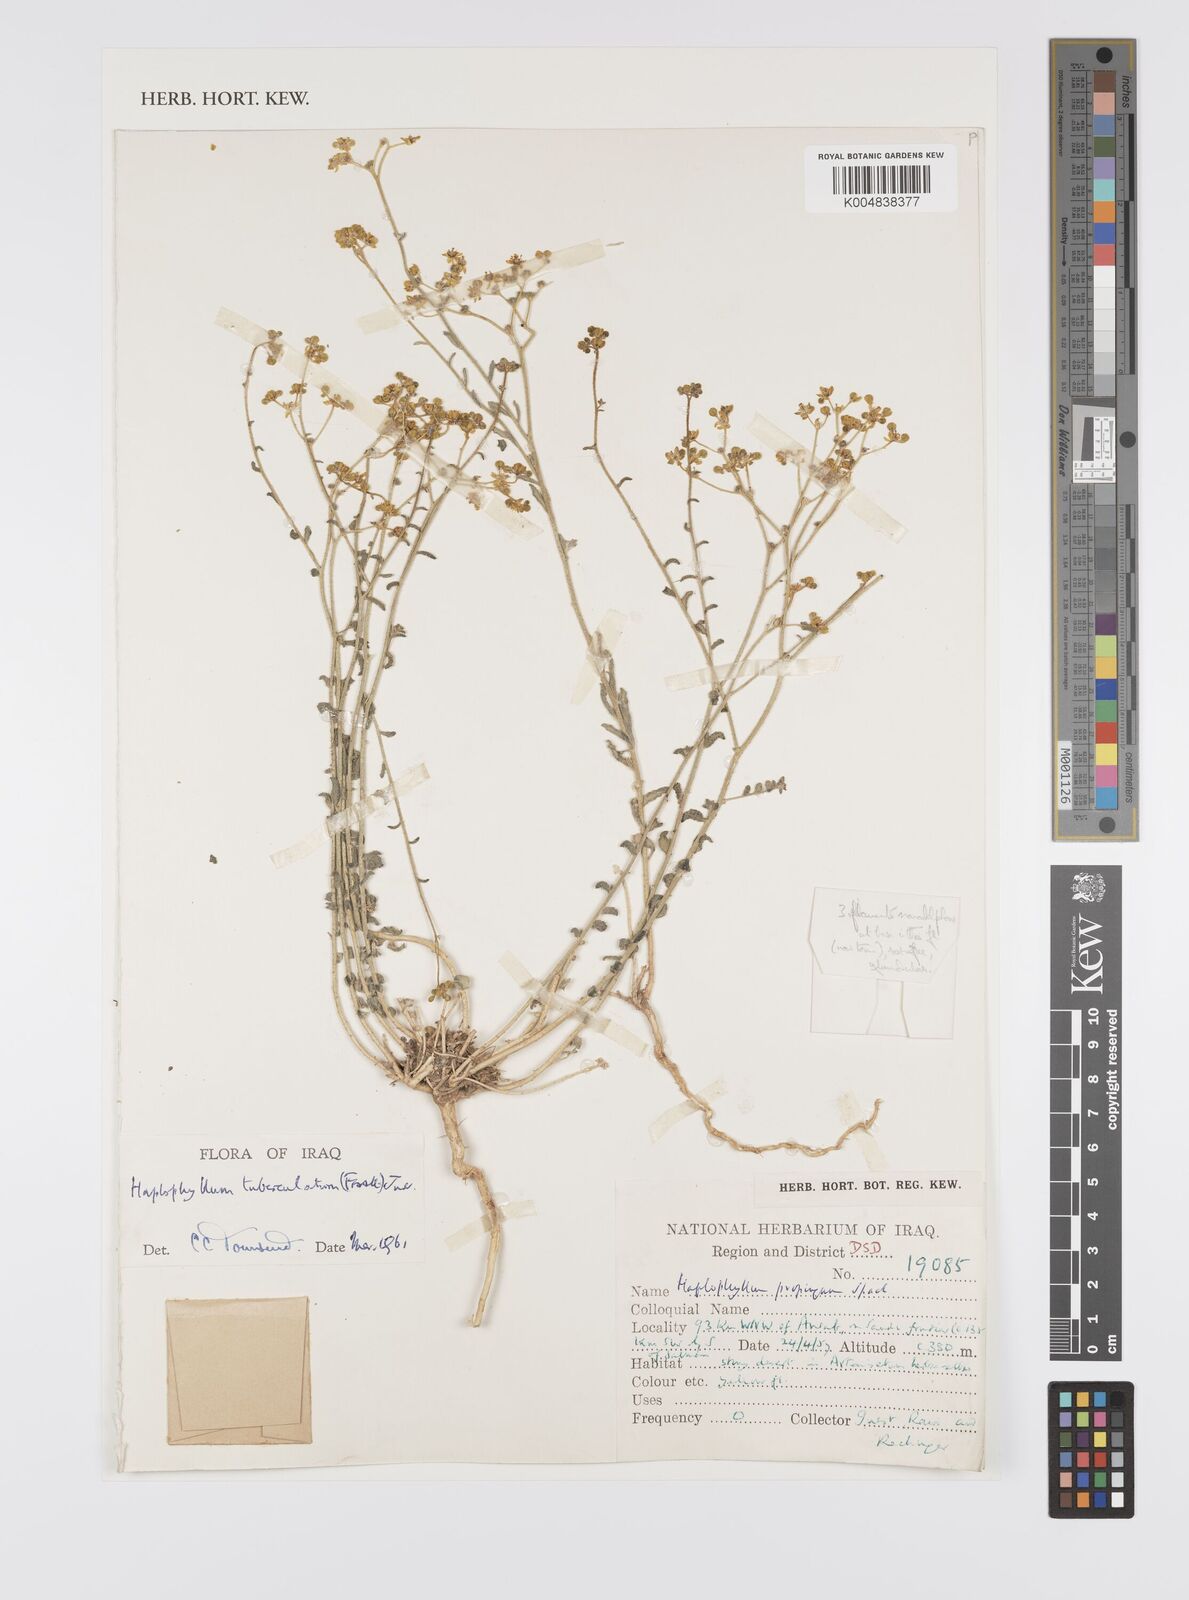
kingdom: Plantae
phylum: Tracheophyta
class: Magnoliopsida
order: Sapindales
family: Rutaceae
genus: Haplophyllum
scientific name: Haplophyllum tuberculatum
